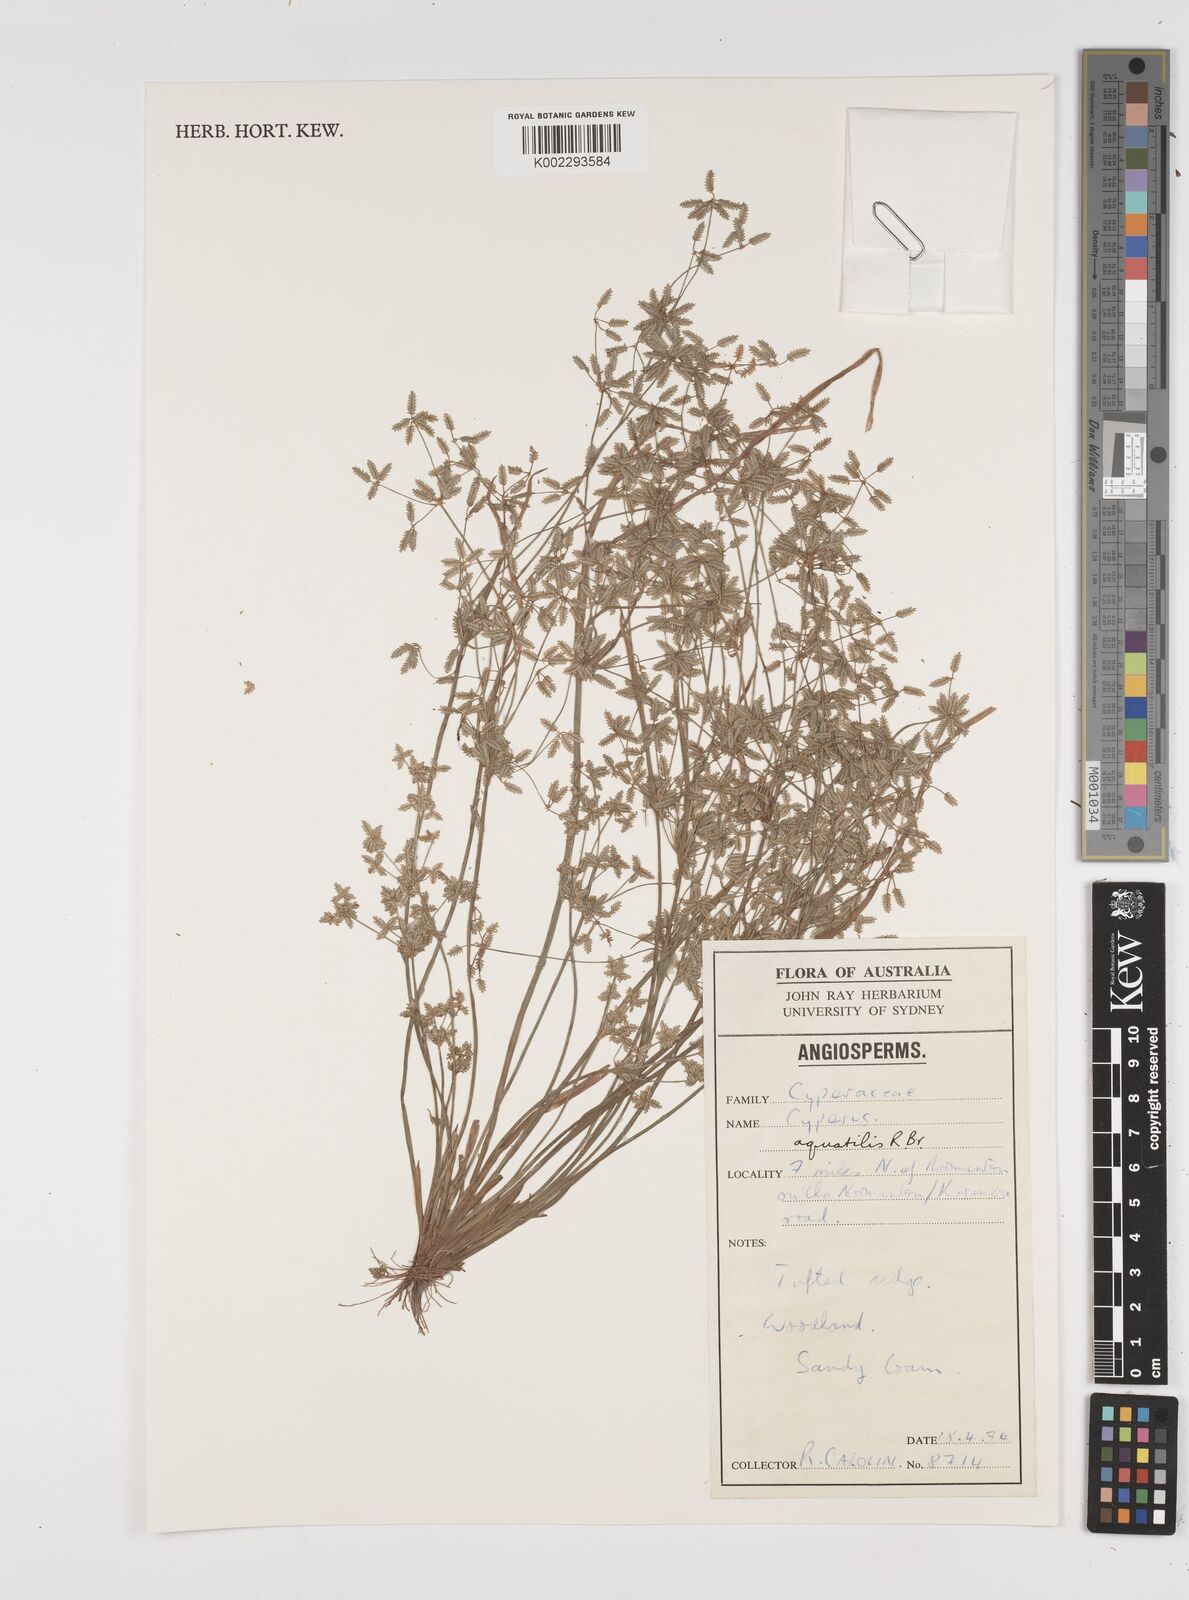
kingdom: Plantae
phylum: Tracheophyta
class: Liliopsida
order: Poales
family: Cyperaceae
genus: Cyperus
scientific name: Cyperus aquatilis
